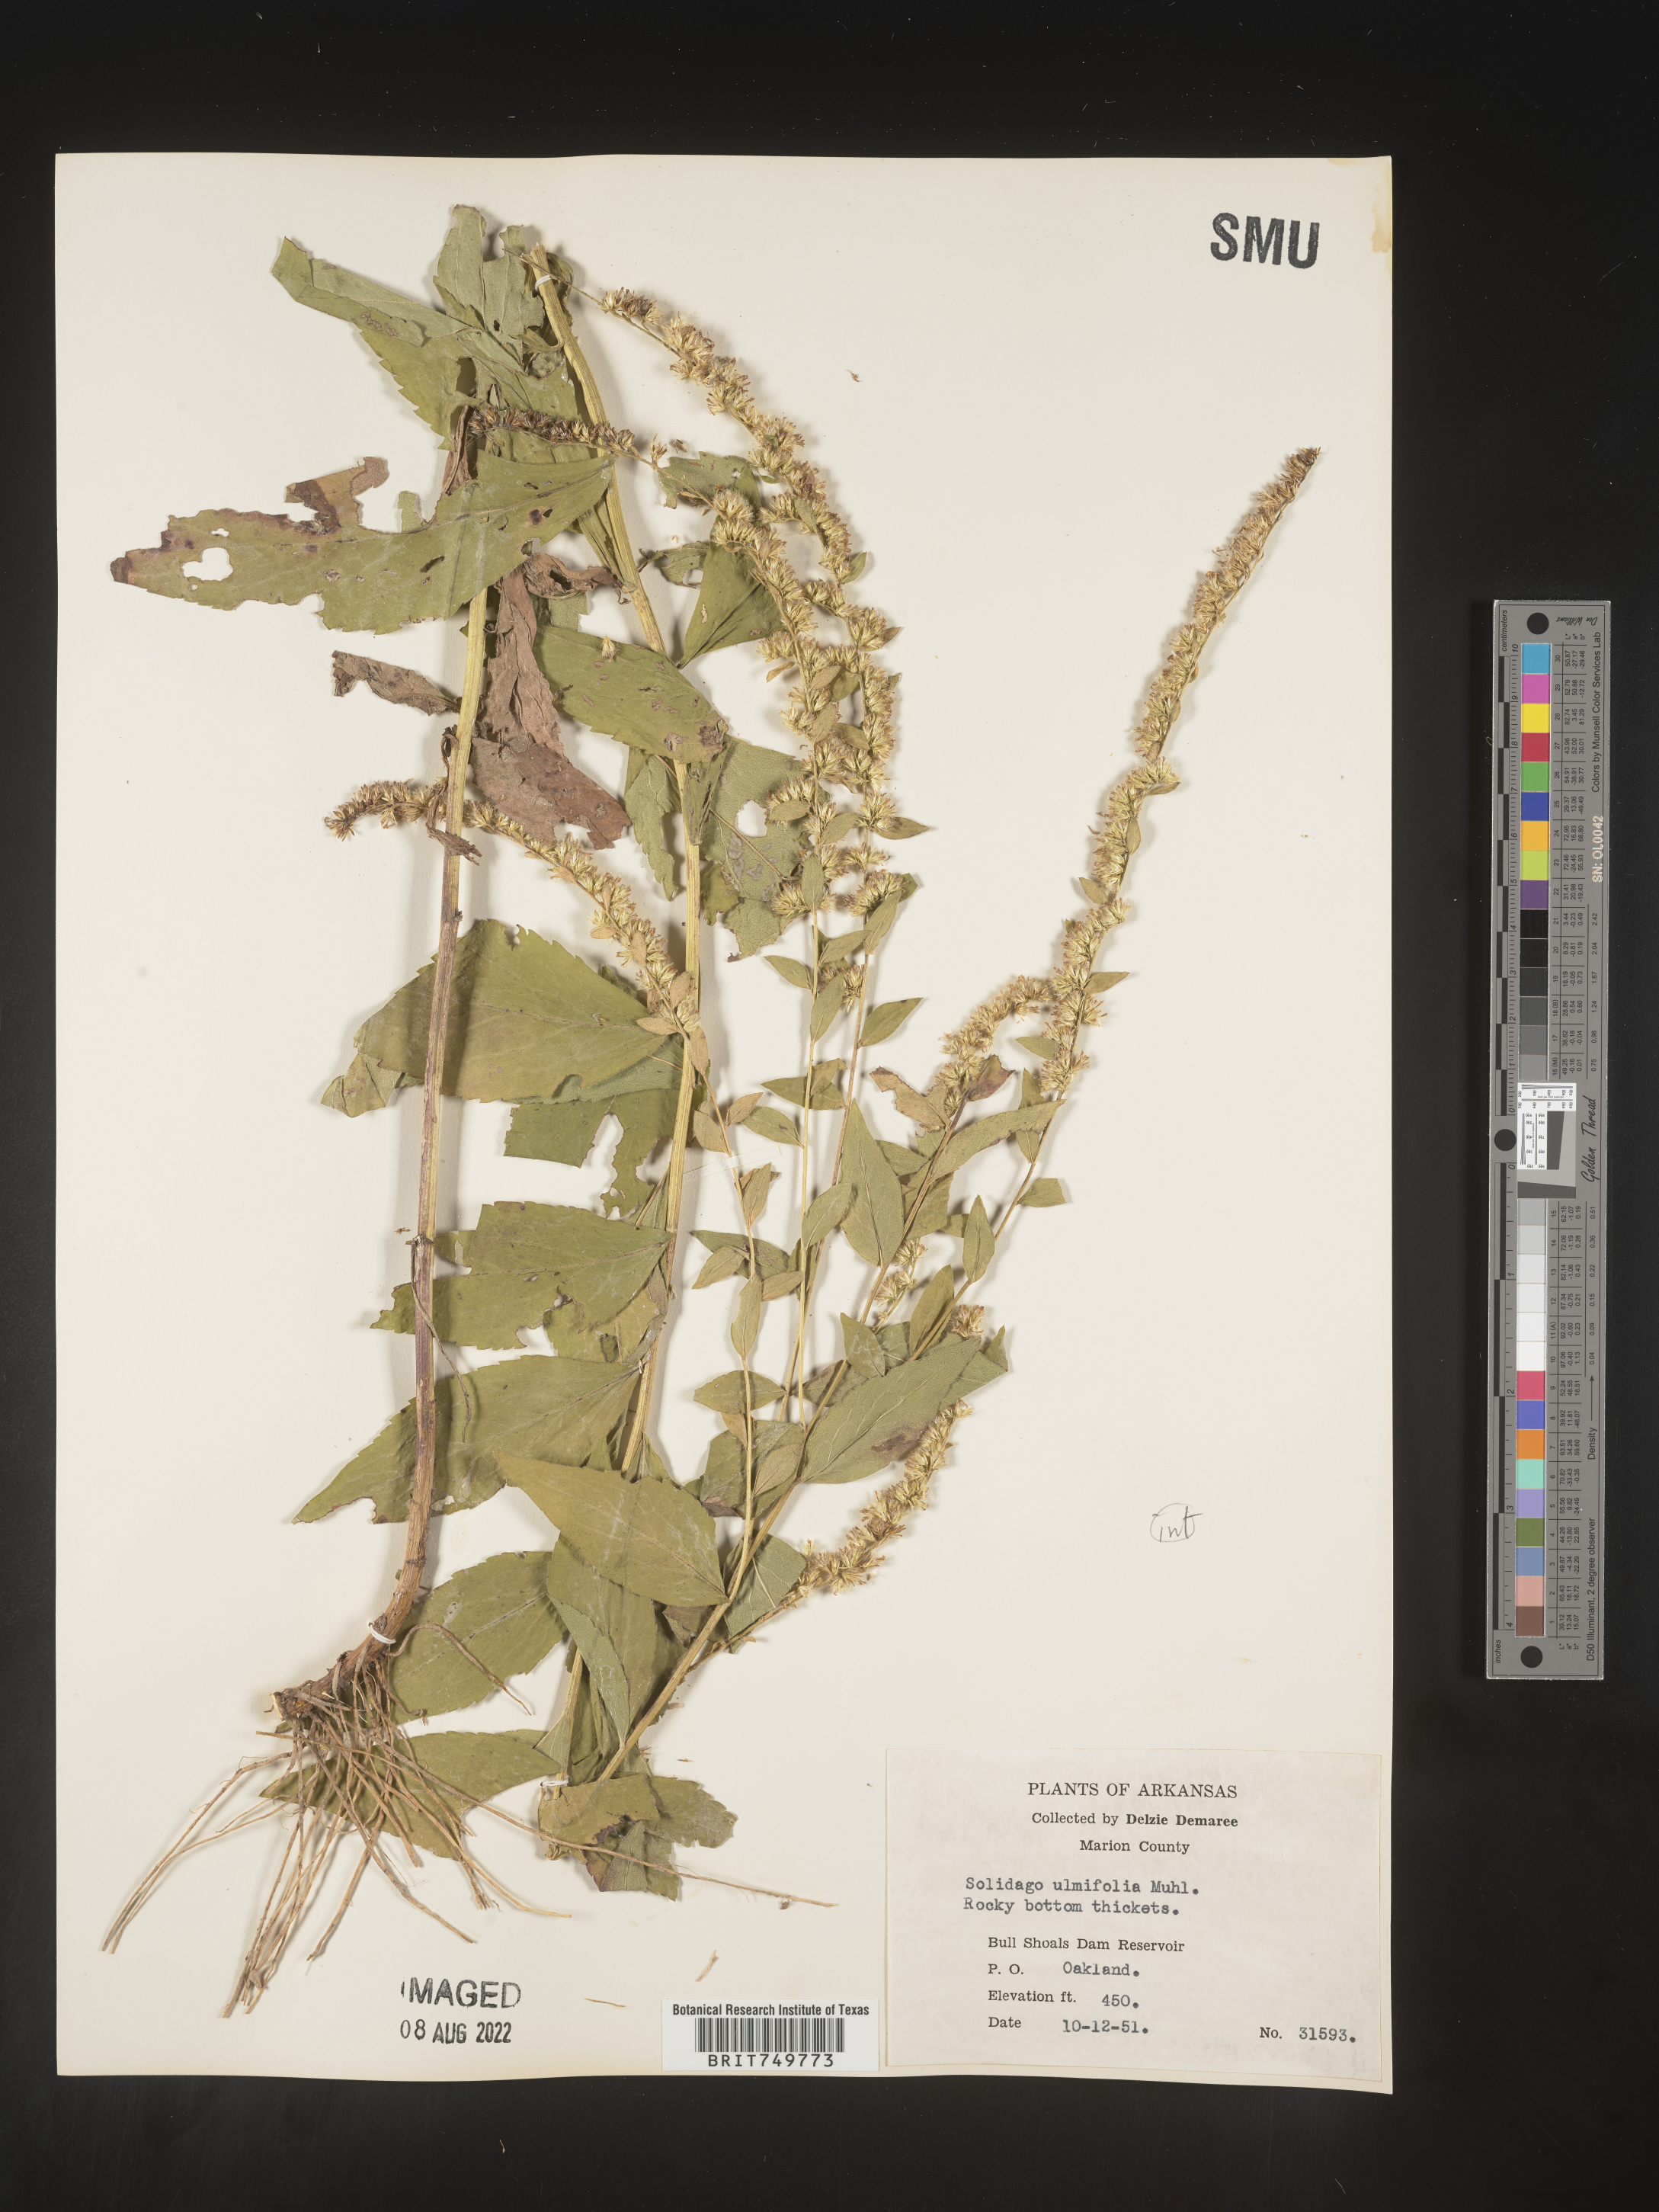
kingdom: Plantae
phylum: Tracheophyta
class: Magnoliopsida
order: Asterales
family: Asteraceae
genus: Solidago
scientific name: Solidago ulmifolia
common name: Elm-leaf goldenrod
